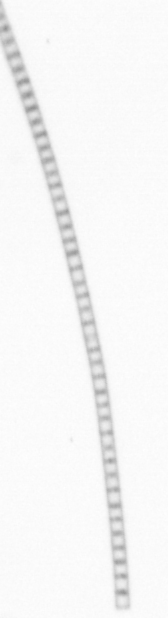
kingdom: Chromista
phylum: Ochrophyta
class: Bacillariophyceae
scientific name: Bacillariophyceae
